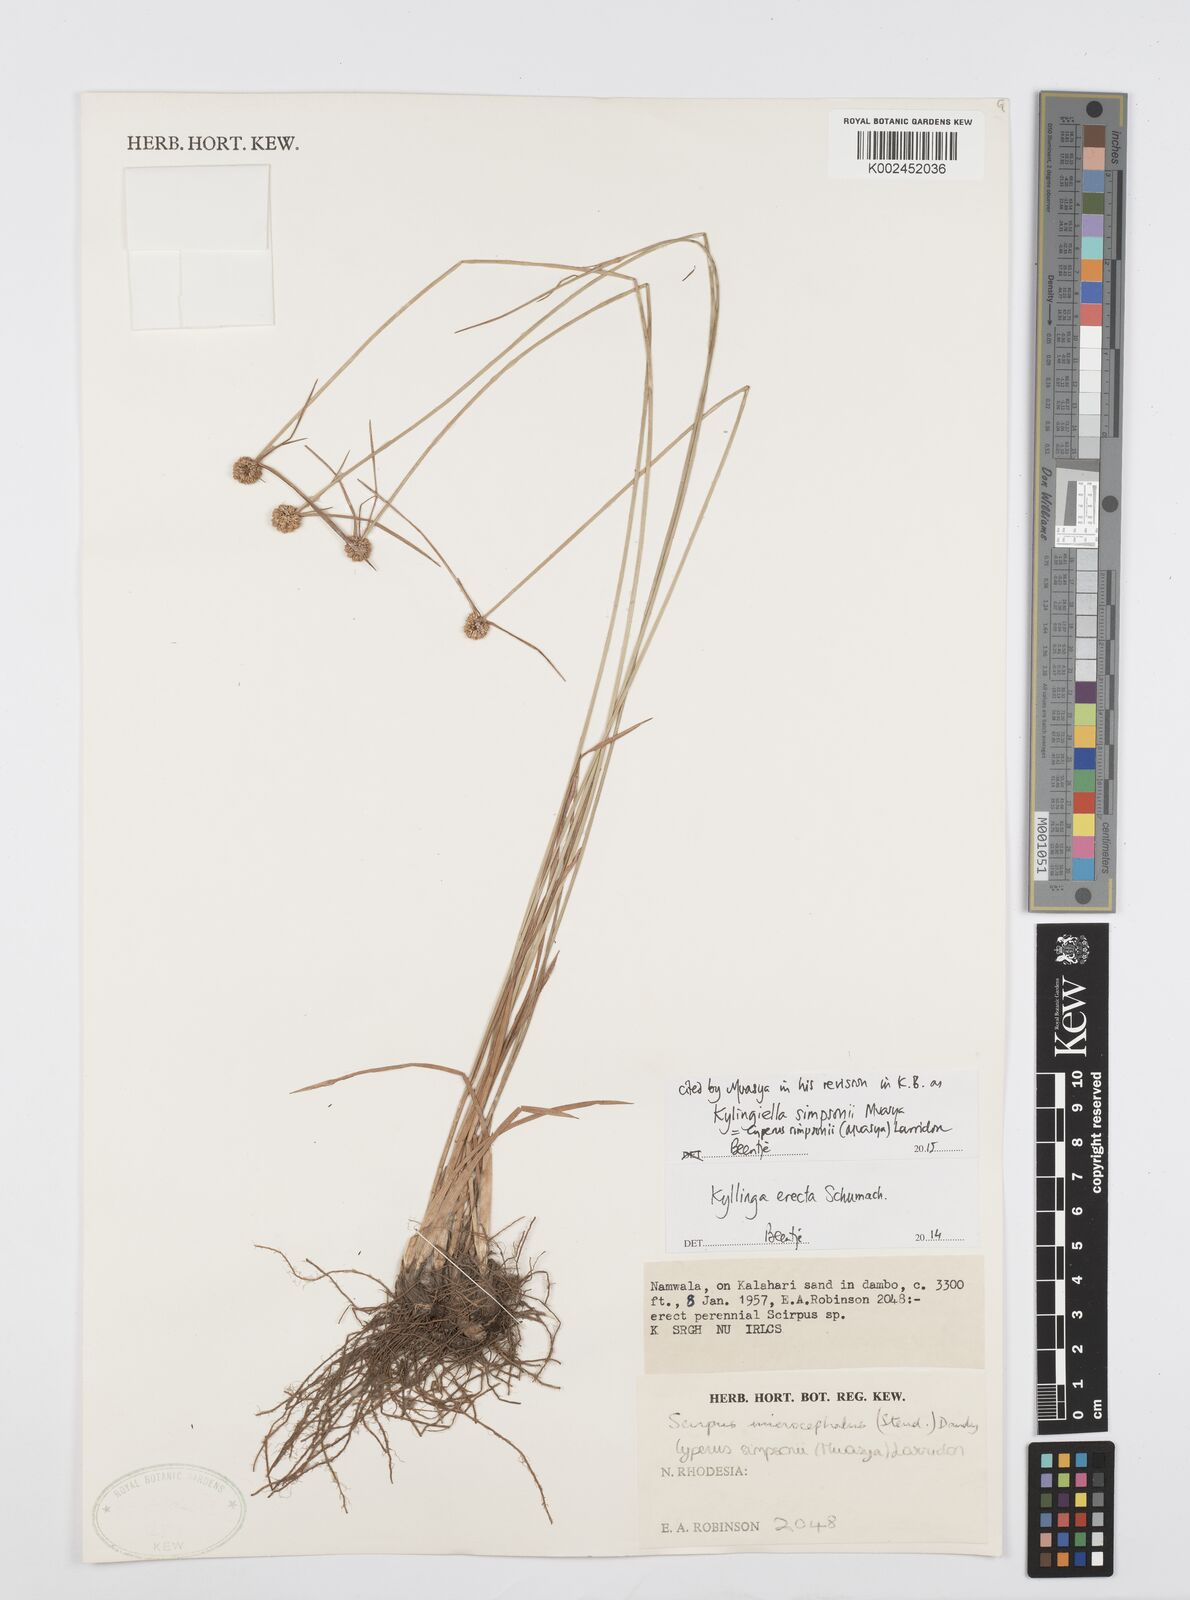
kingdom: Plantae
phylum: Tracheophyta
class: Liliopsida
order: Poales
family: Cyperaceae
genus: Cyperus
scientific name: Cyperus simpsonii
